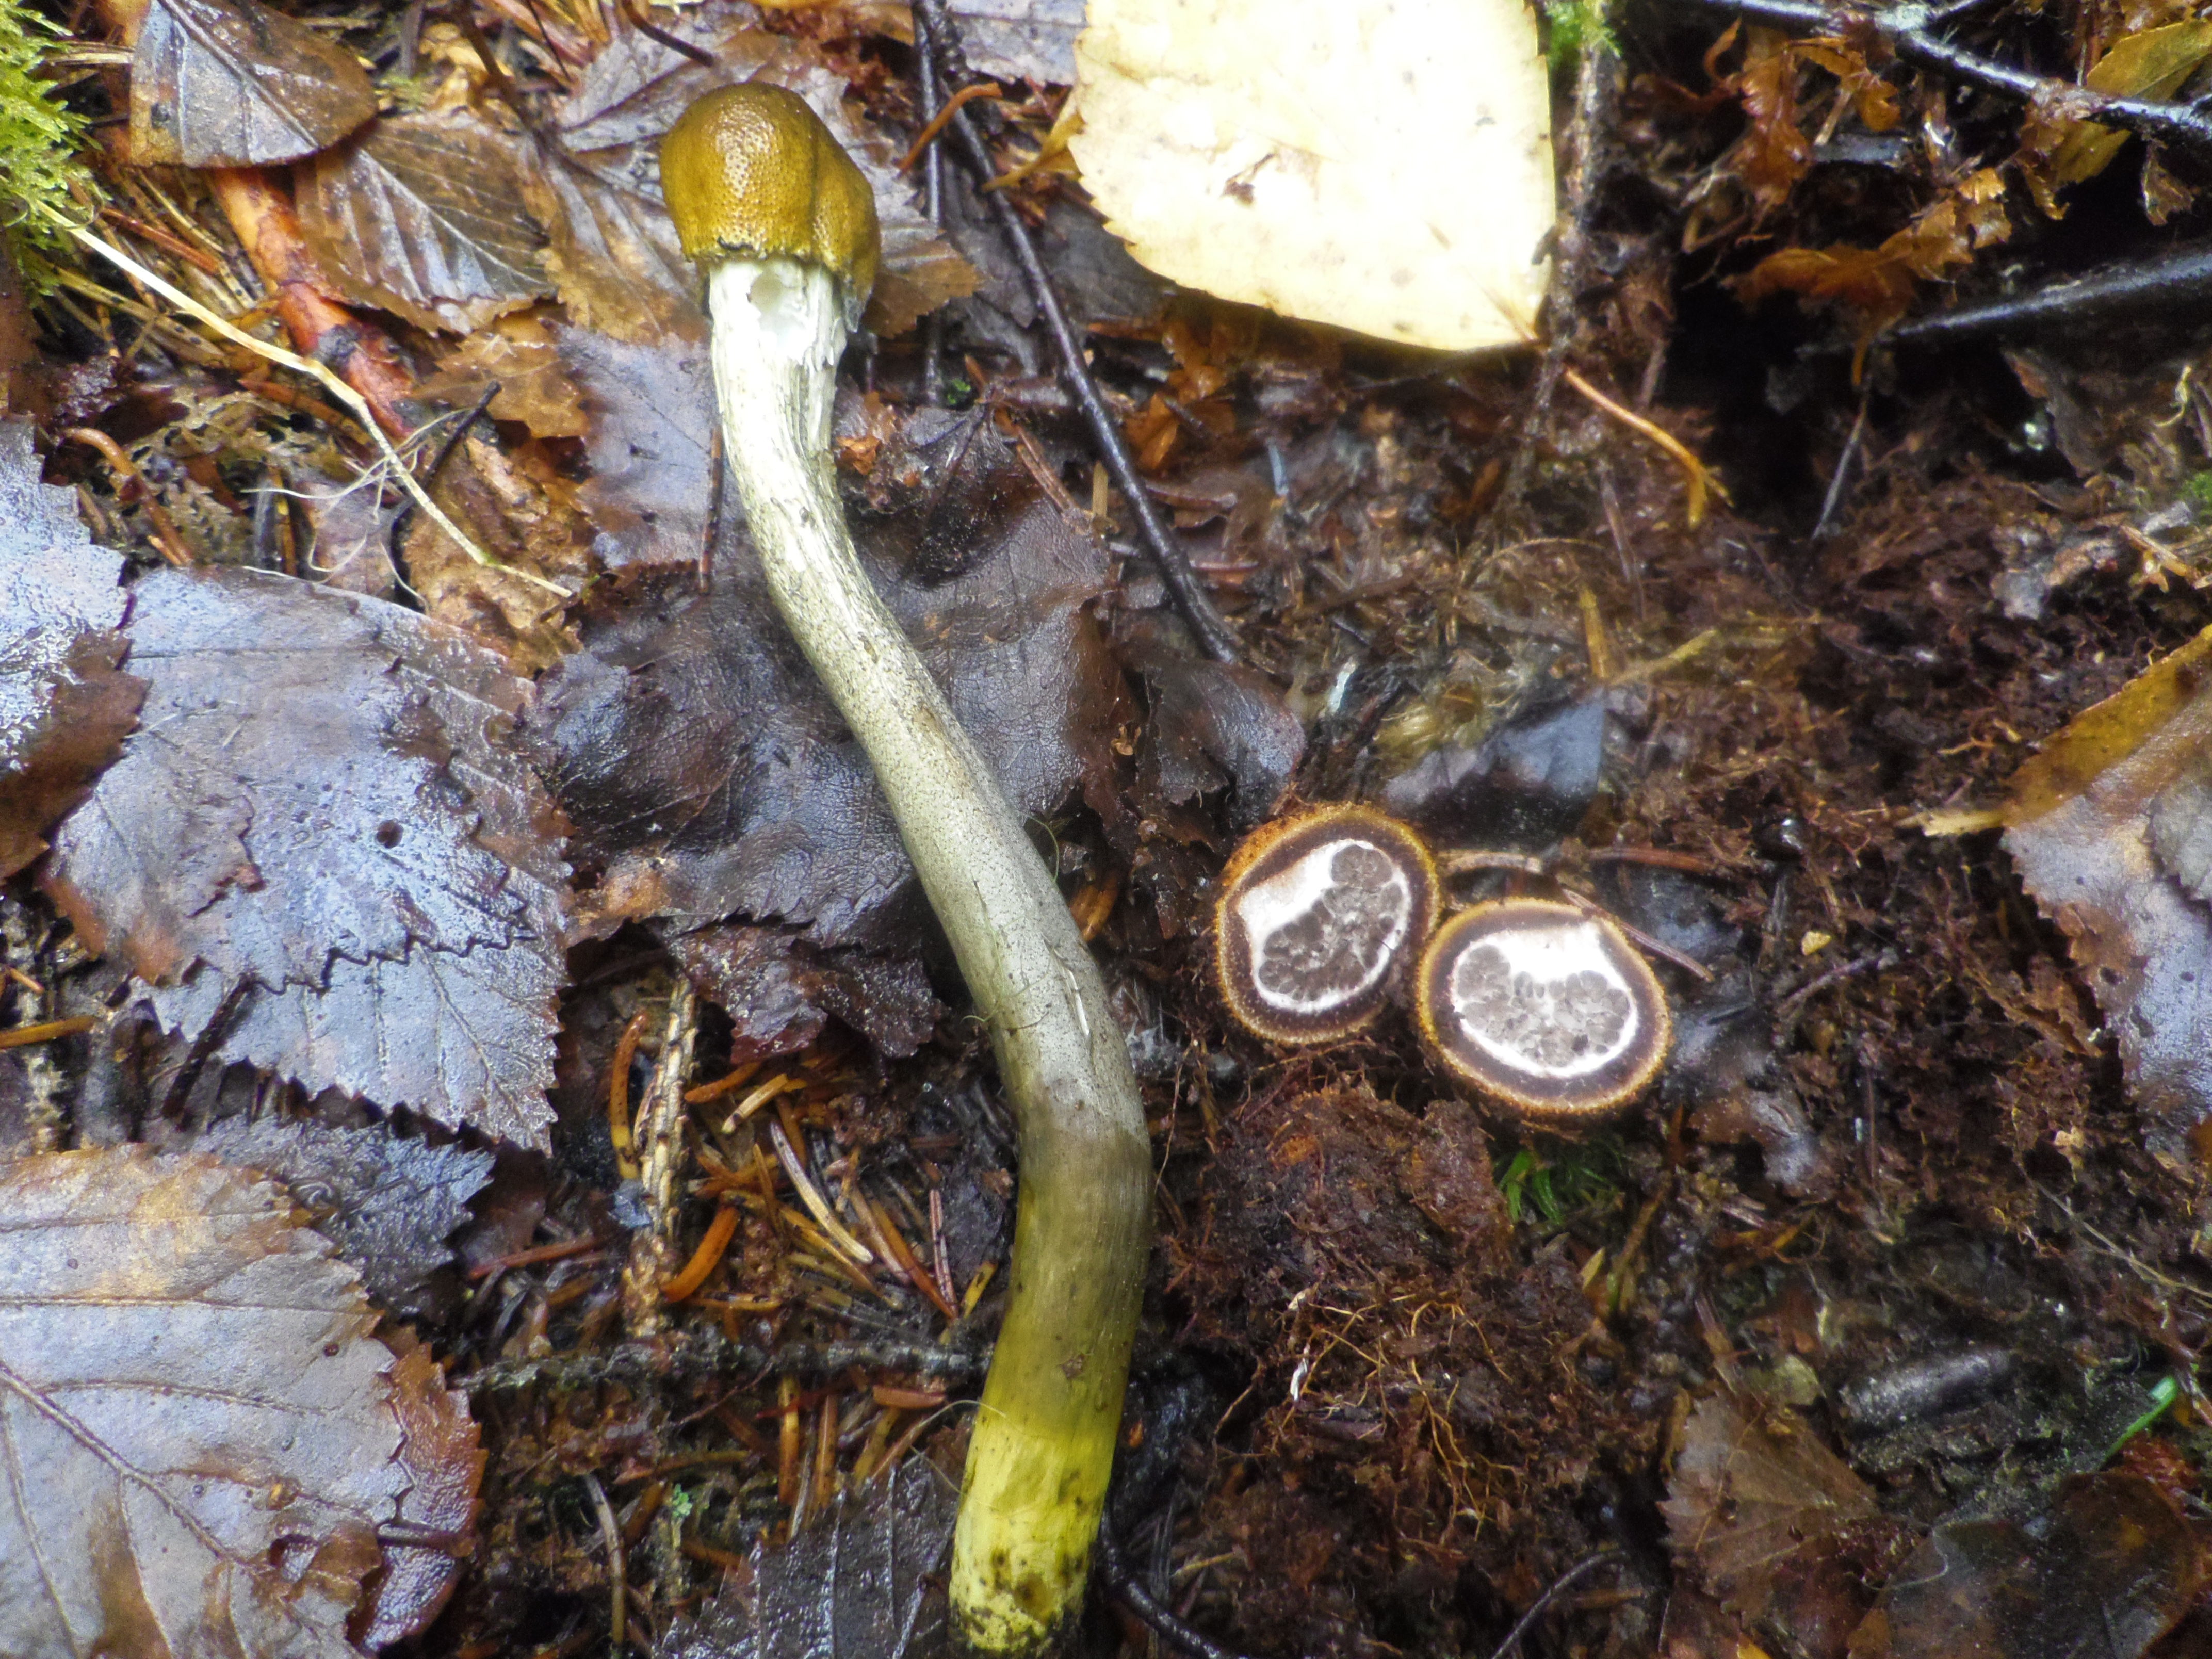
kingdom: Fungi
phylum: Ascomycota
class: Sordariomycetes
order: Hypocreales
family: Ophiocordycipitaceae
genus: Tolypocladium
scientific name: Tolypocladium longisegmentatum
